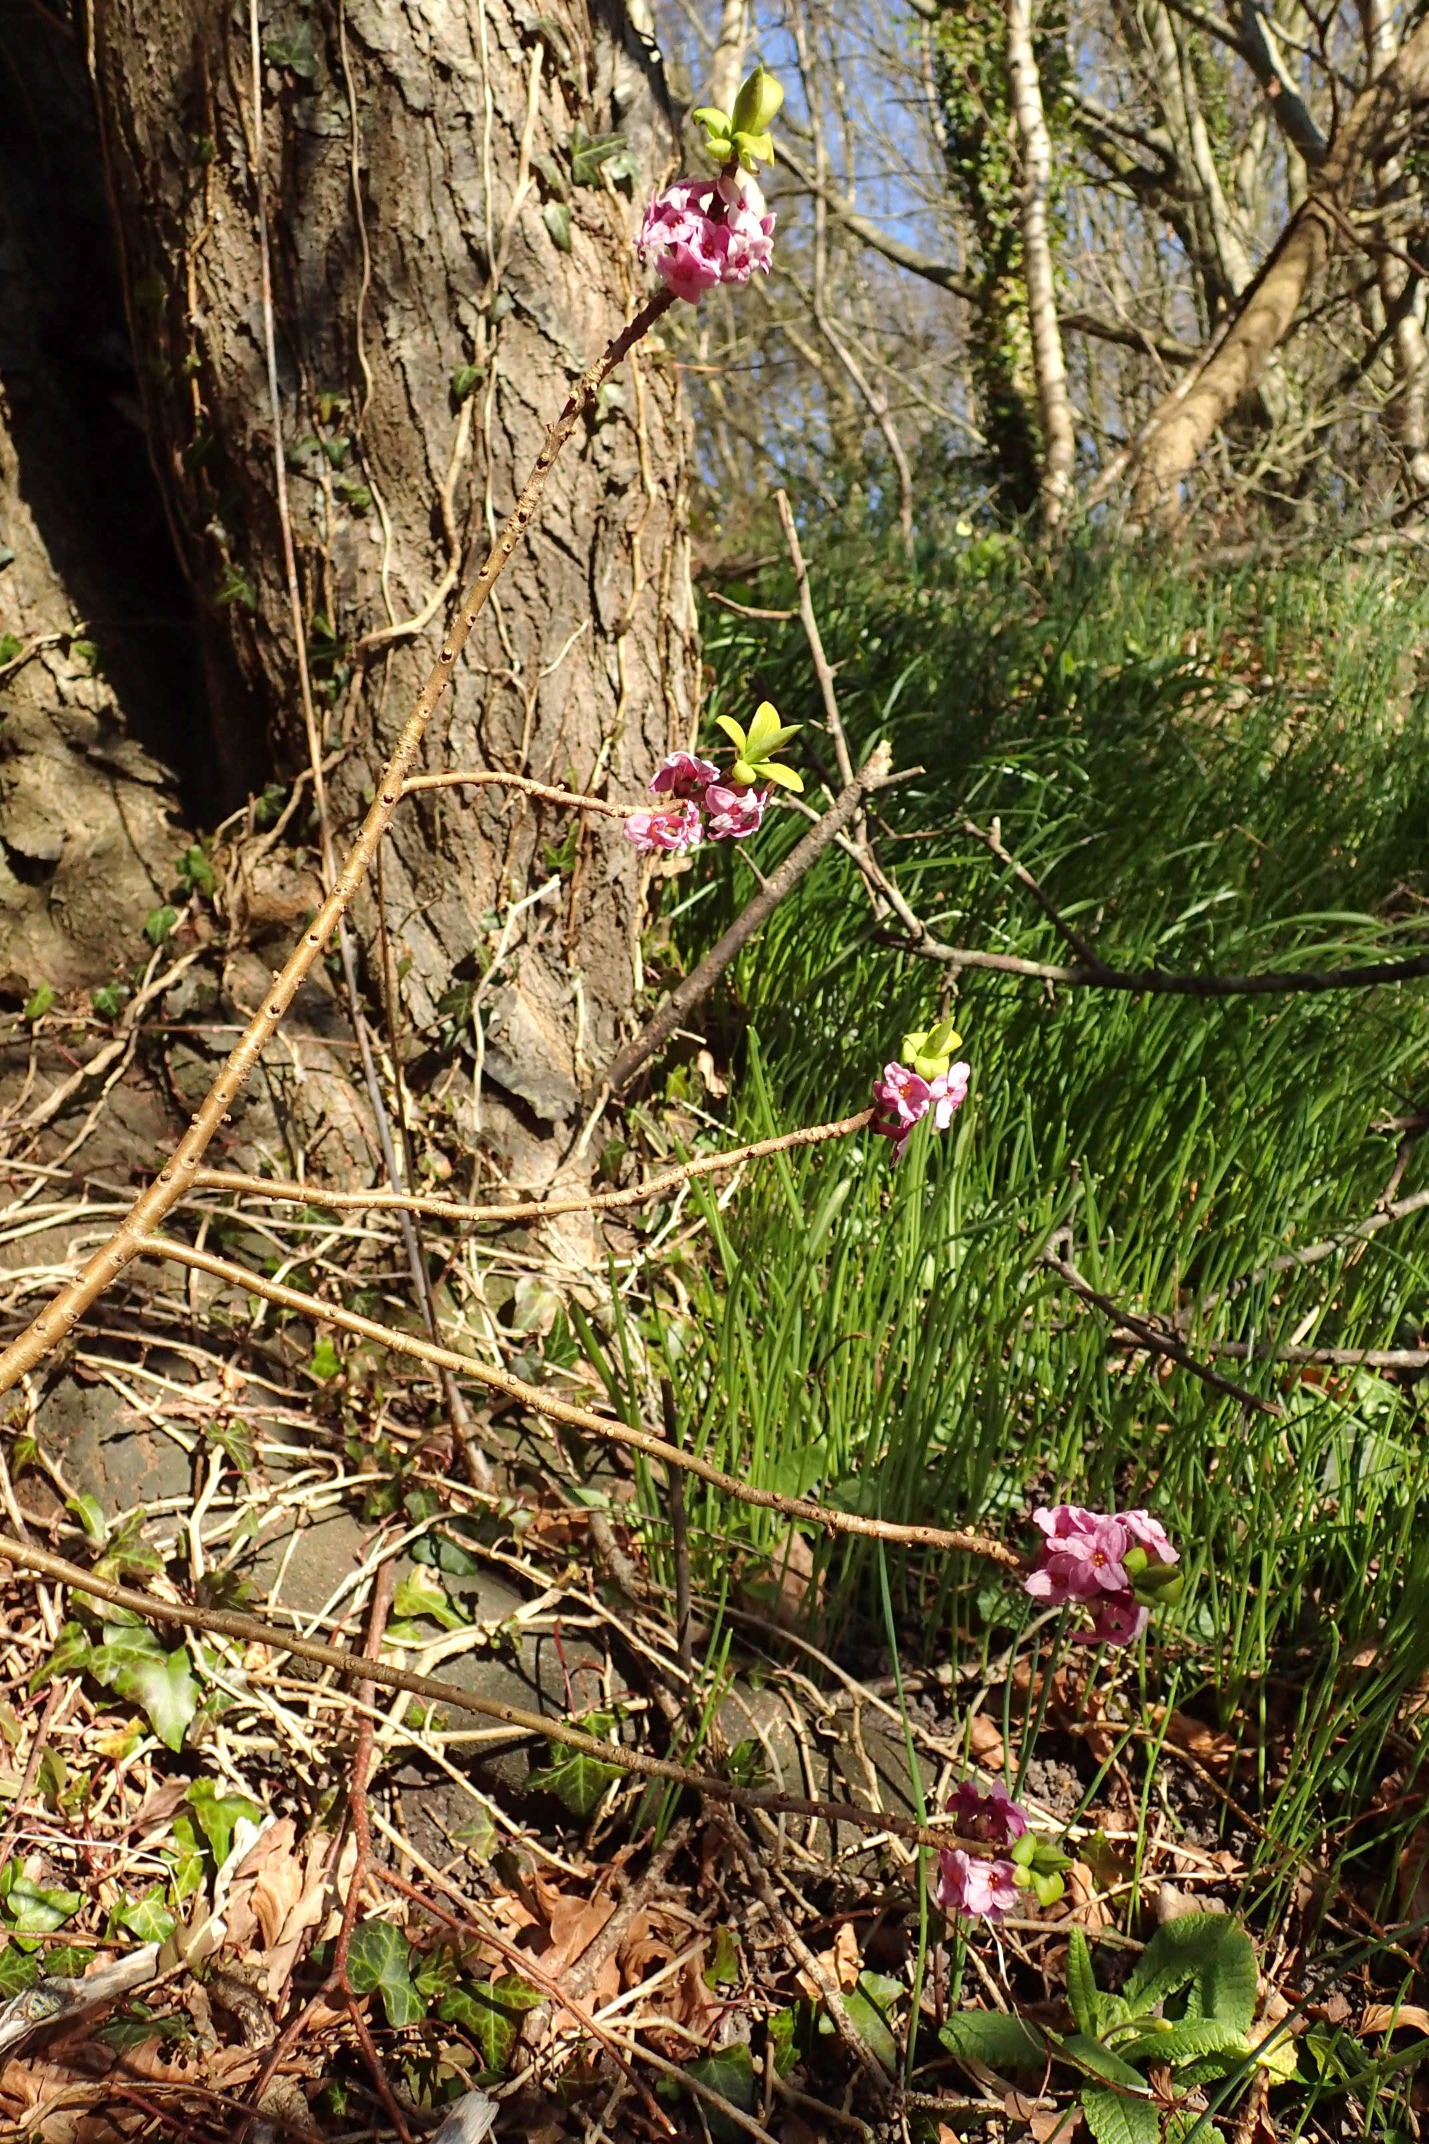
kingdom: Plantae
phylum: Tracheophyta
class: Magnoliopsida
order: Malvales
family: Thymelaeaceae
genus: Daphne
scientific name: Daphne mezereum
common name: Pebertræ
